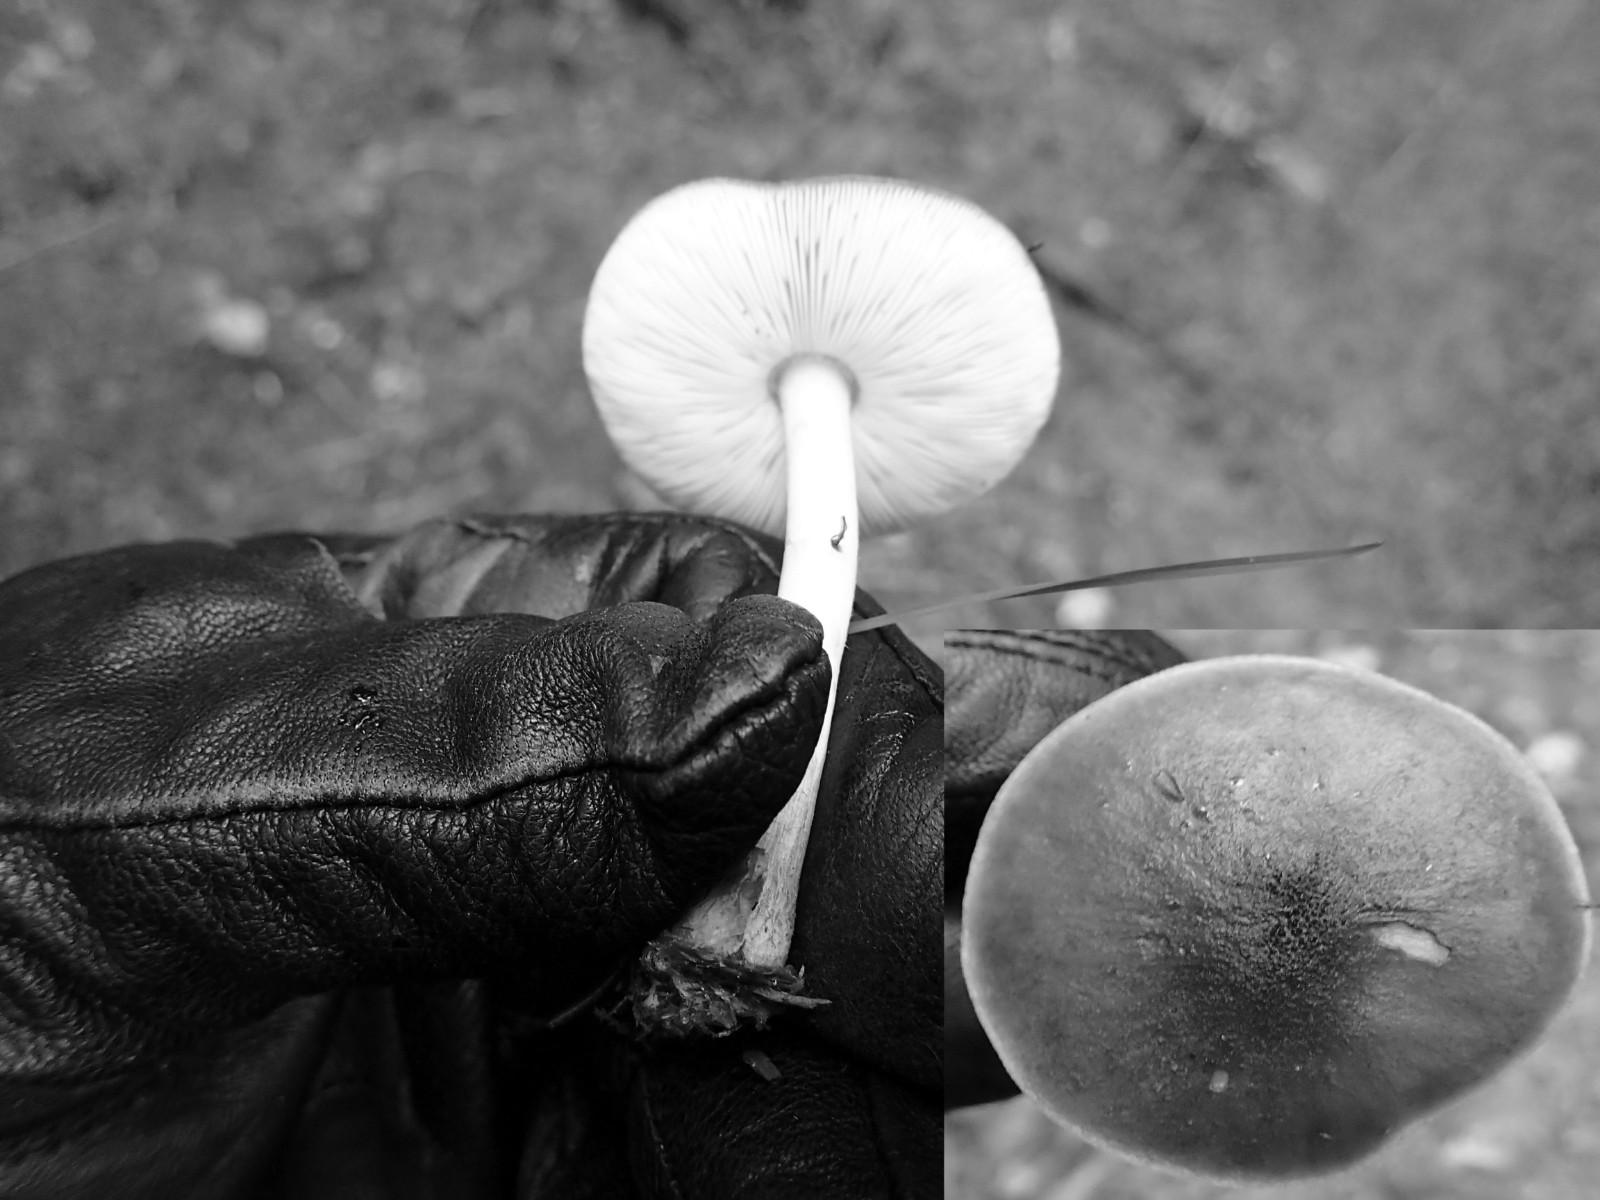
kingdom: Fungi
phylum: Basidiomycota
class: Agaricomycetes
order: Agaricales
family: Pluteaceae
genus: Pluteus
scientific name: Pluteus
